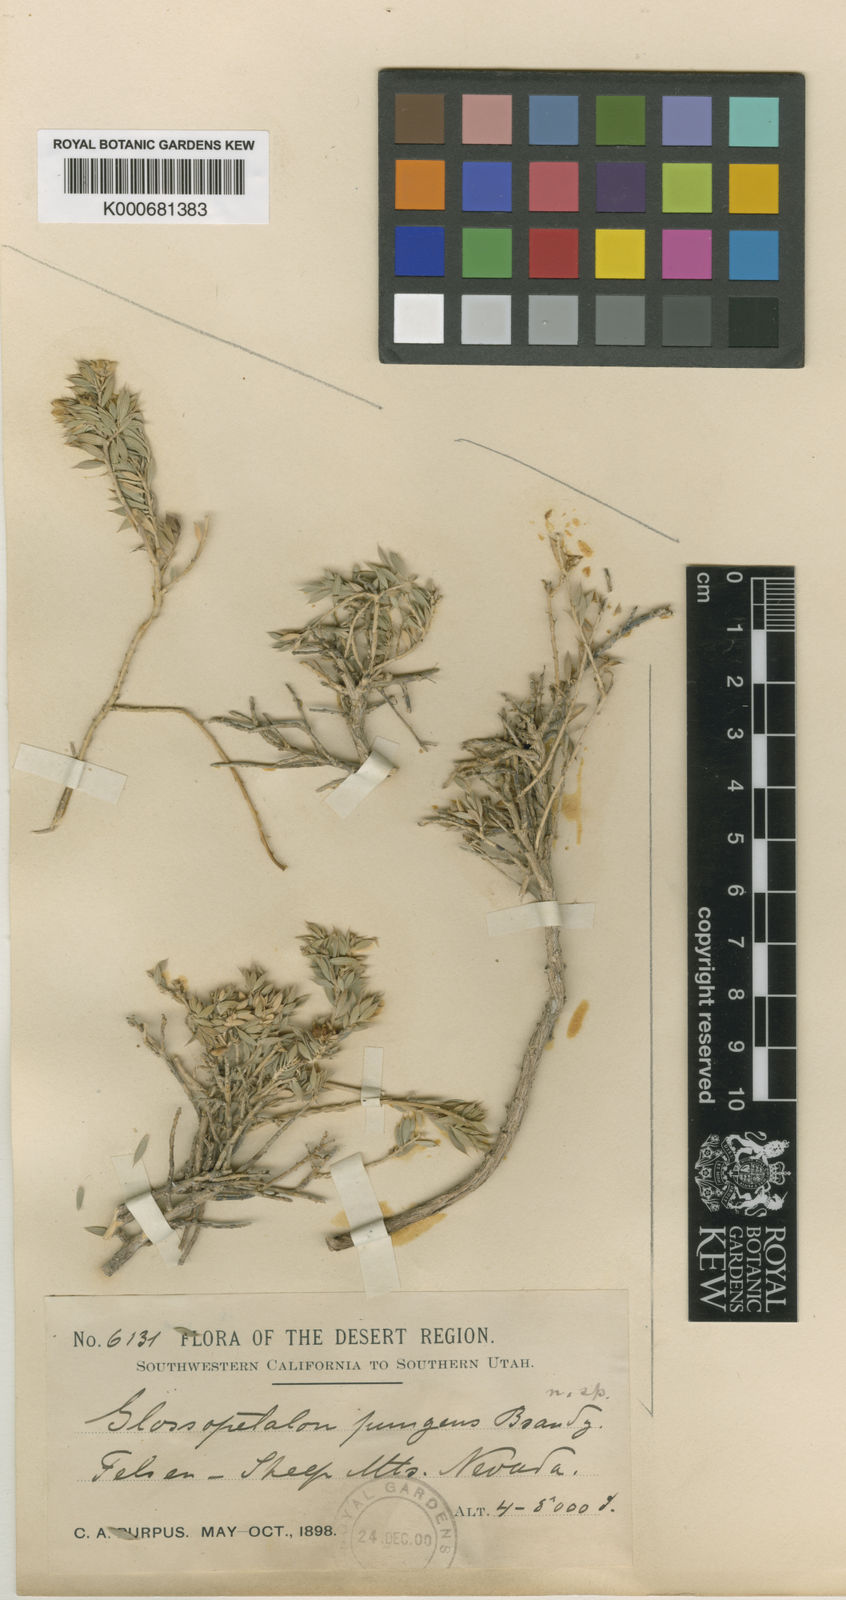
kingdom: Plantae
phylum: Tracheophyta
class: Magnoliopsida
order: Crossosomatales
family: Crossosomataceae
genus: Glossopetalon
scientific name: Glossopetalon pungens
